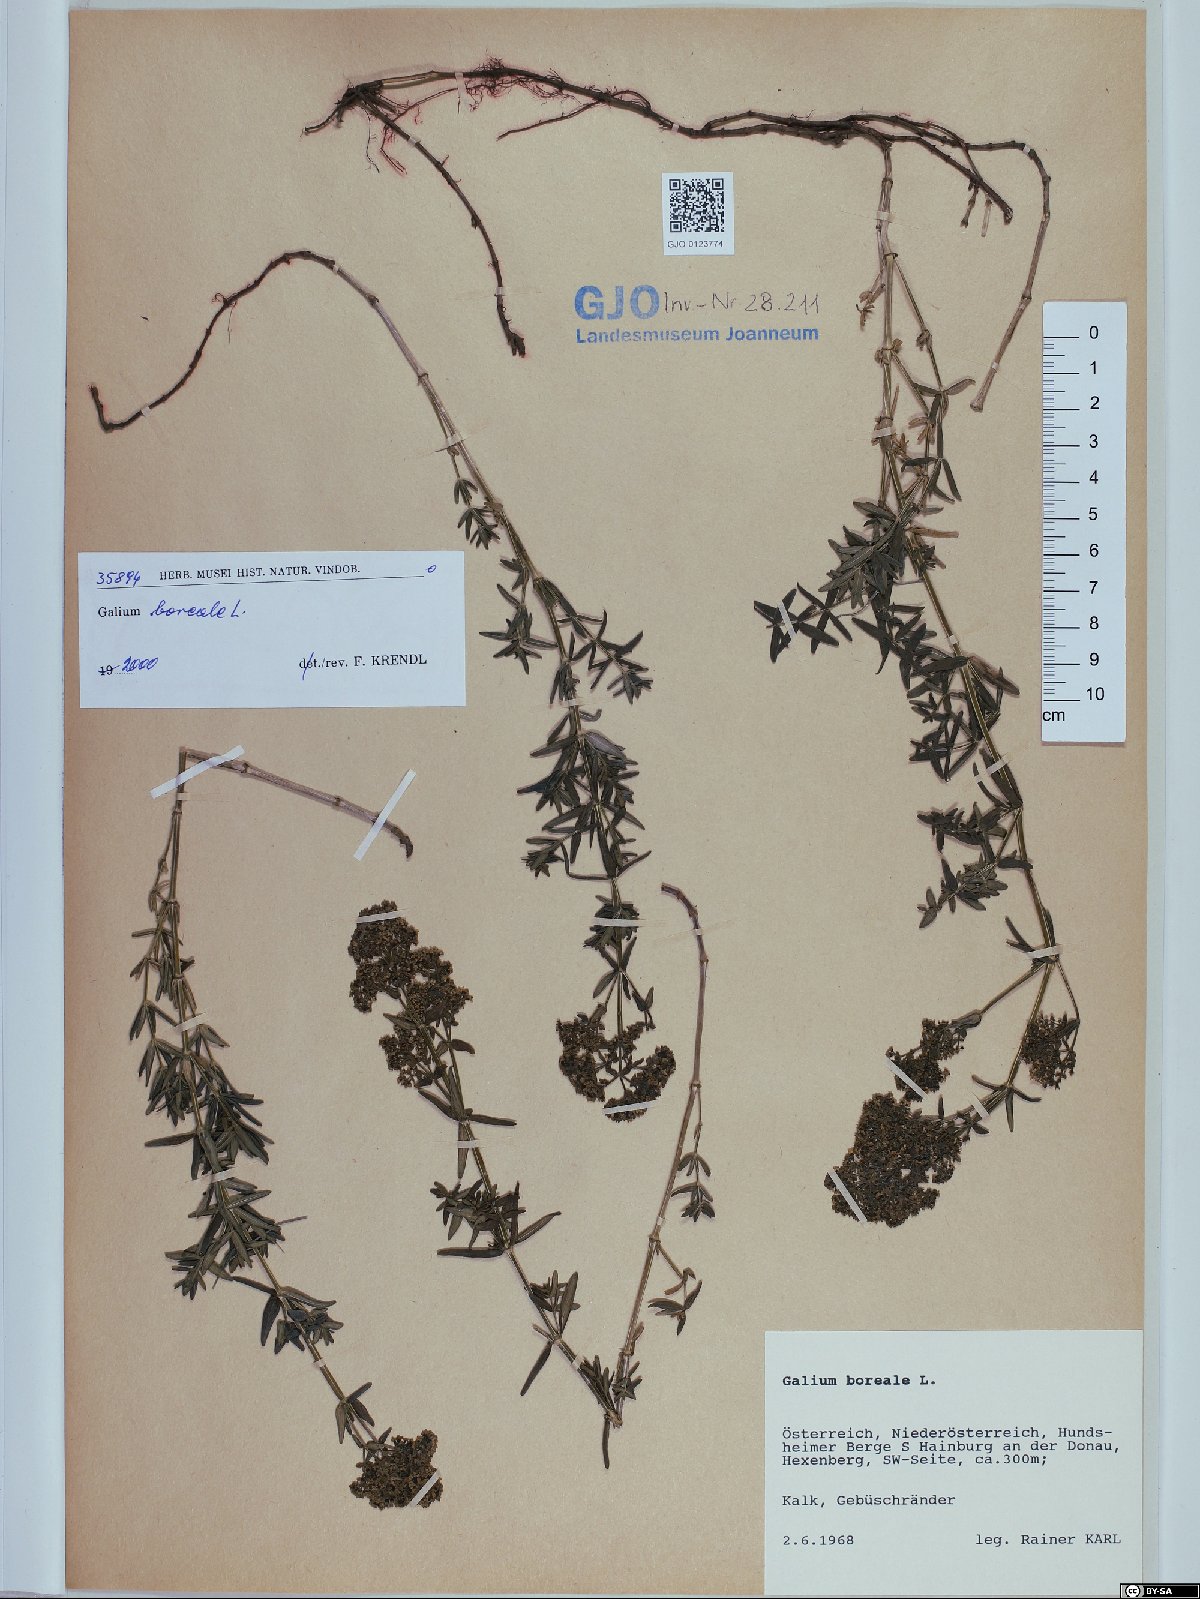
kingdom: Plantae
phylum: Tracheophyta
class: Magnoliopsida
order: Gentianales
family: Rubiaceae
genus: Galium
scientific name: Galium boreale
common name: Northern bedstraw
